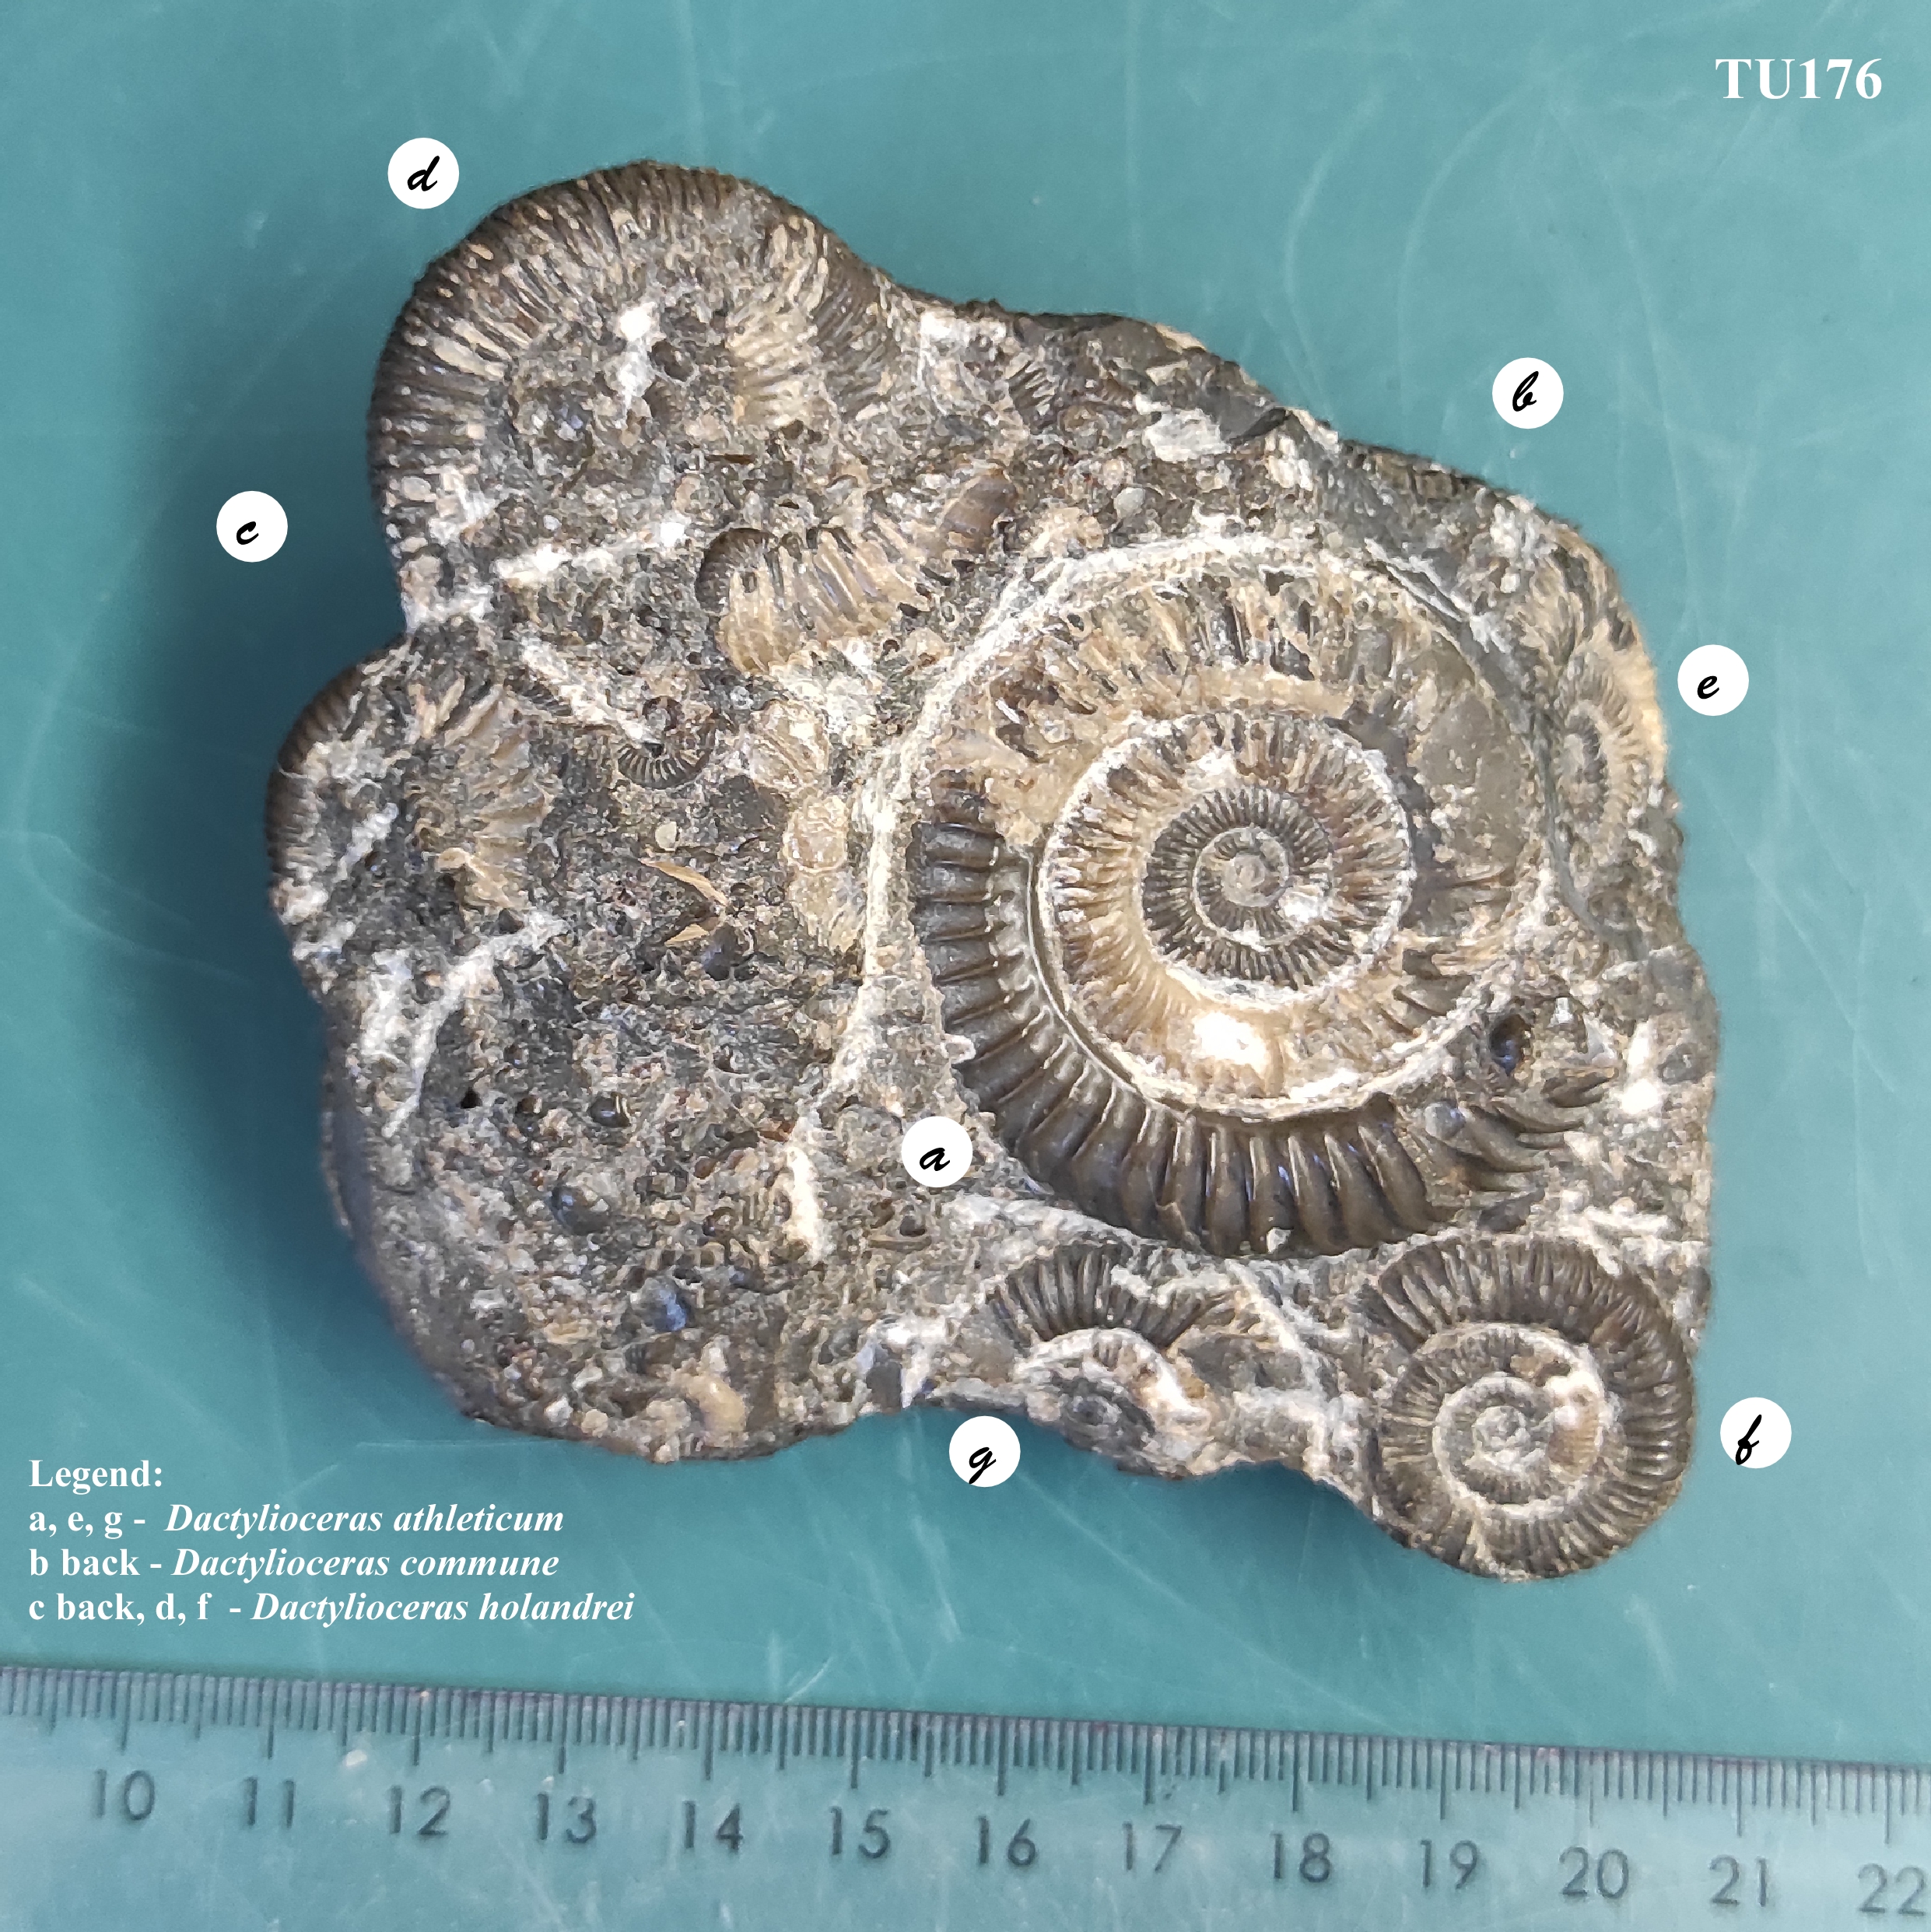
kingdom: Animalia
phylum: Mollusca
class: Cephalopoda
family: Dactylioceratidae
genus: Dactylioceras
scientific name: Dactylioceras
